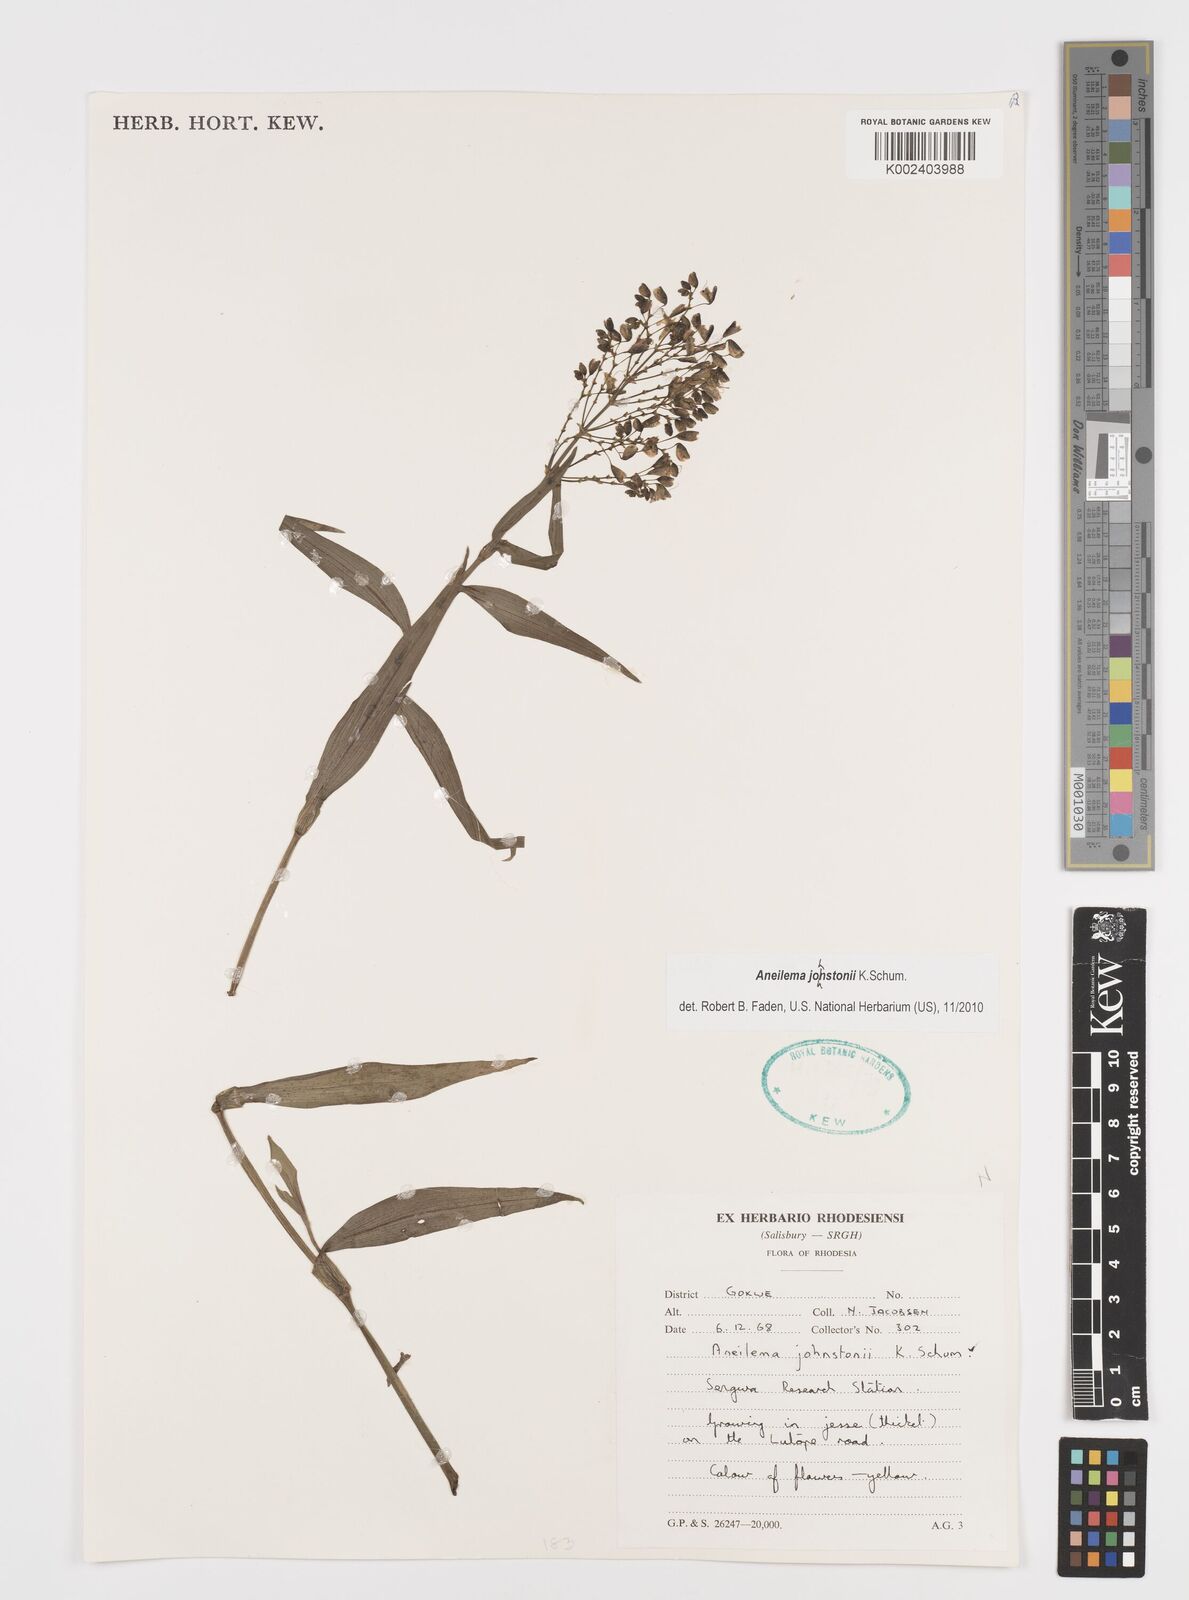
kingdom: Plantae
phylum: Tracheophyta
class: Liliopsida
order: Commelinales
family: Commelinaceae
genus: Aneilema
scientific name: Aneilema johnstonii
